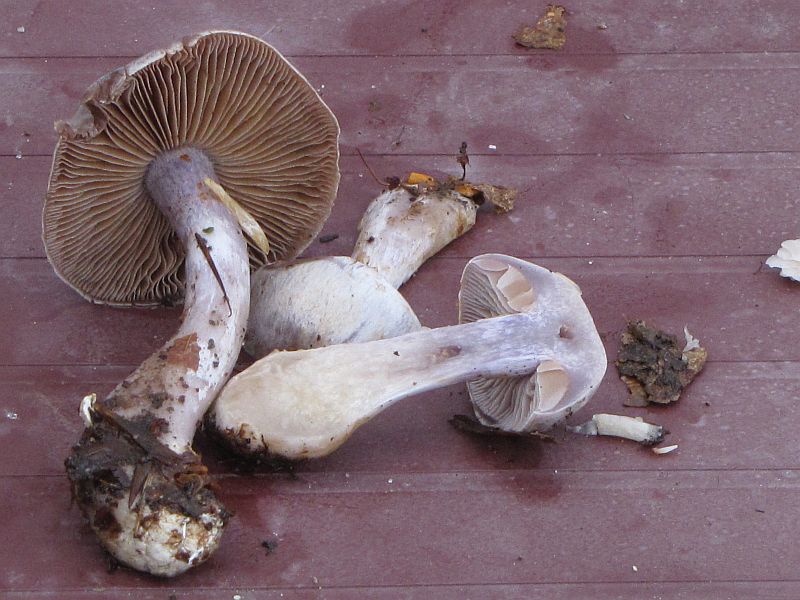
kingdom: Fungi
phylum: Basidiomycota
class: Agaricomycetes
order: Agaricales
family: Cortinariaceae
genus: Cortinarius
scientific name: Cortinarius alboviolaceus
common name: lysviolet slørhat
